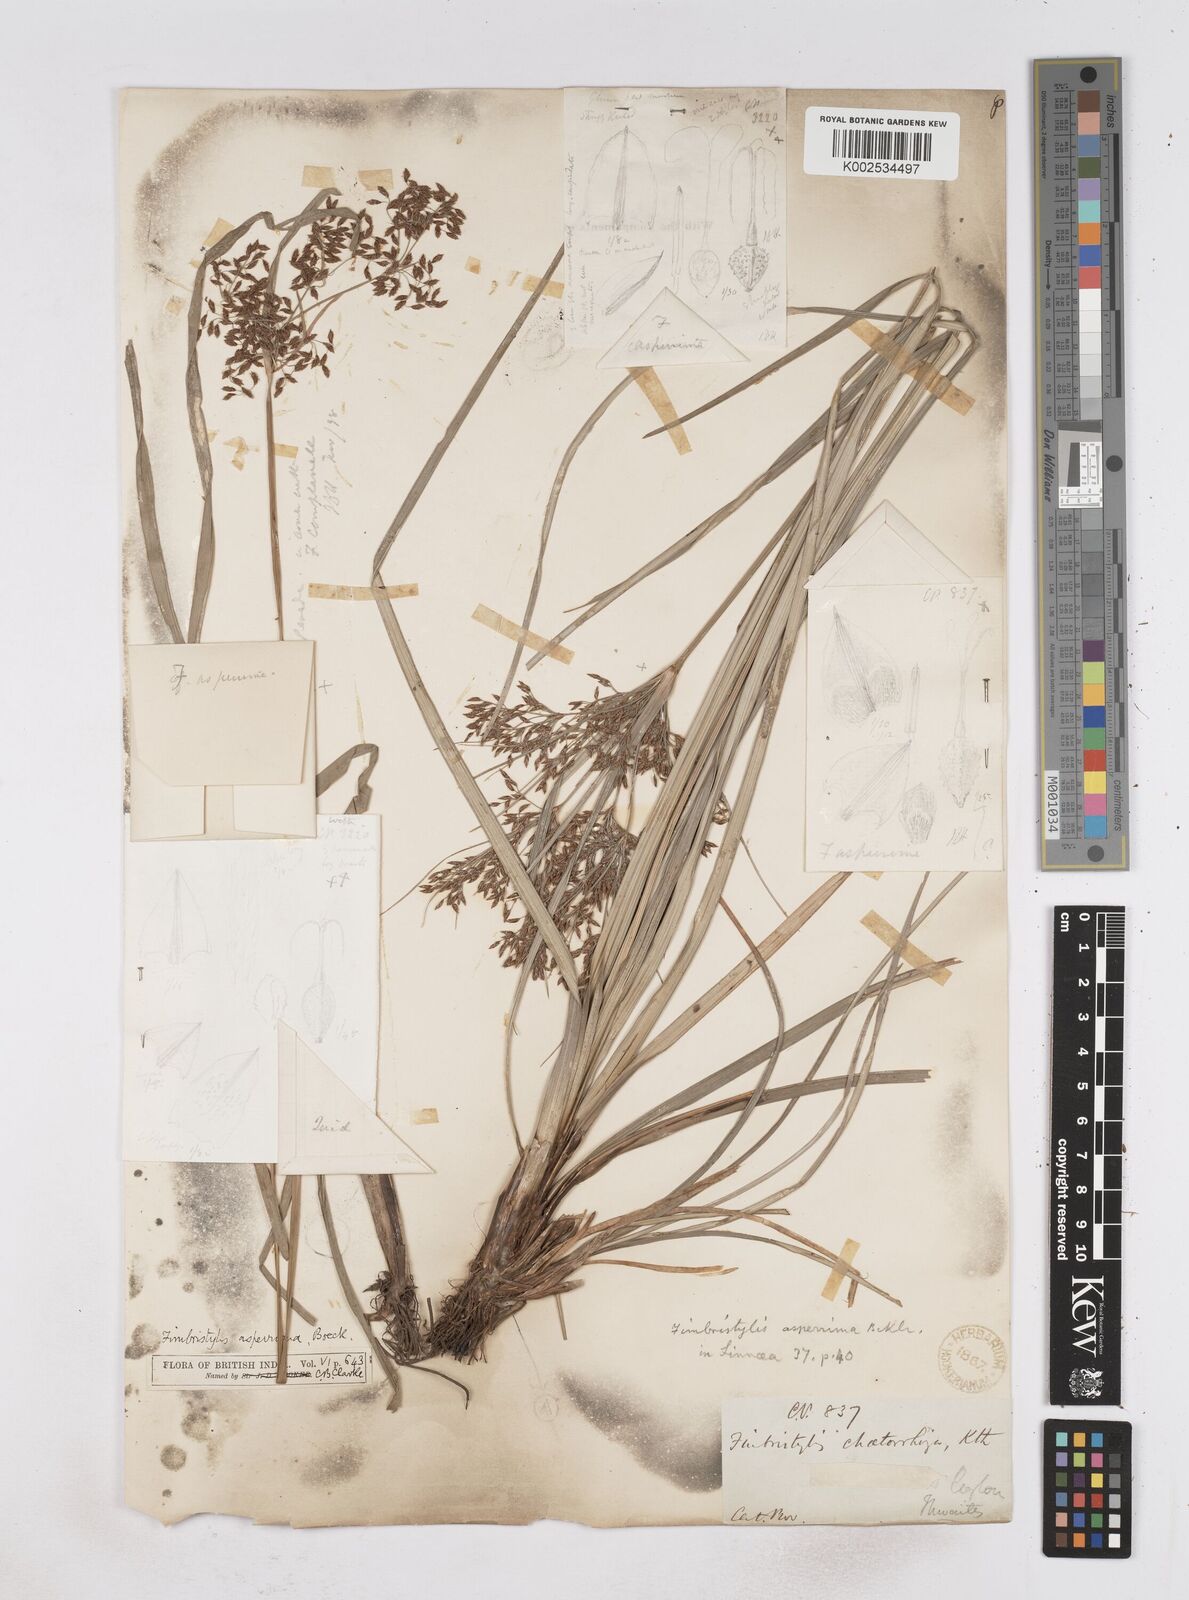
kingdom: Plantae
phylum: Tracheophyta
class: Liliopsida
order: Poales
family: Cyperaceae
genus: Fimbristylis
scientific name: Fimbristylis dura
